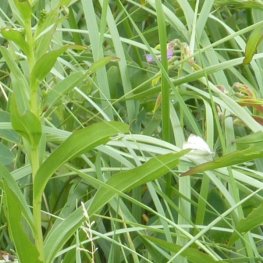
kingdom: Animalia
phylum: Arthropoda
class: Insecta
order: Lepidoptera
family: Pieridae
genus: Pieris
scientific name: Pieris rapae
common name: Cabbage White
